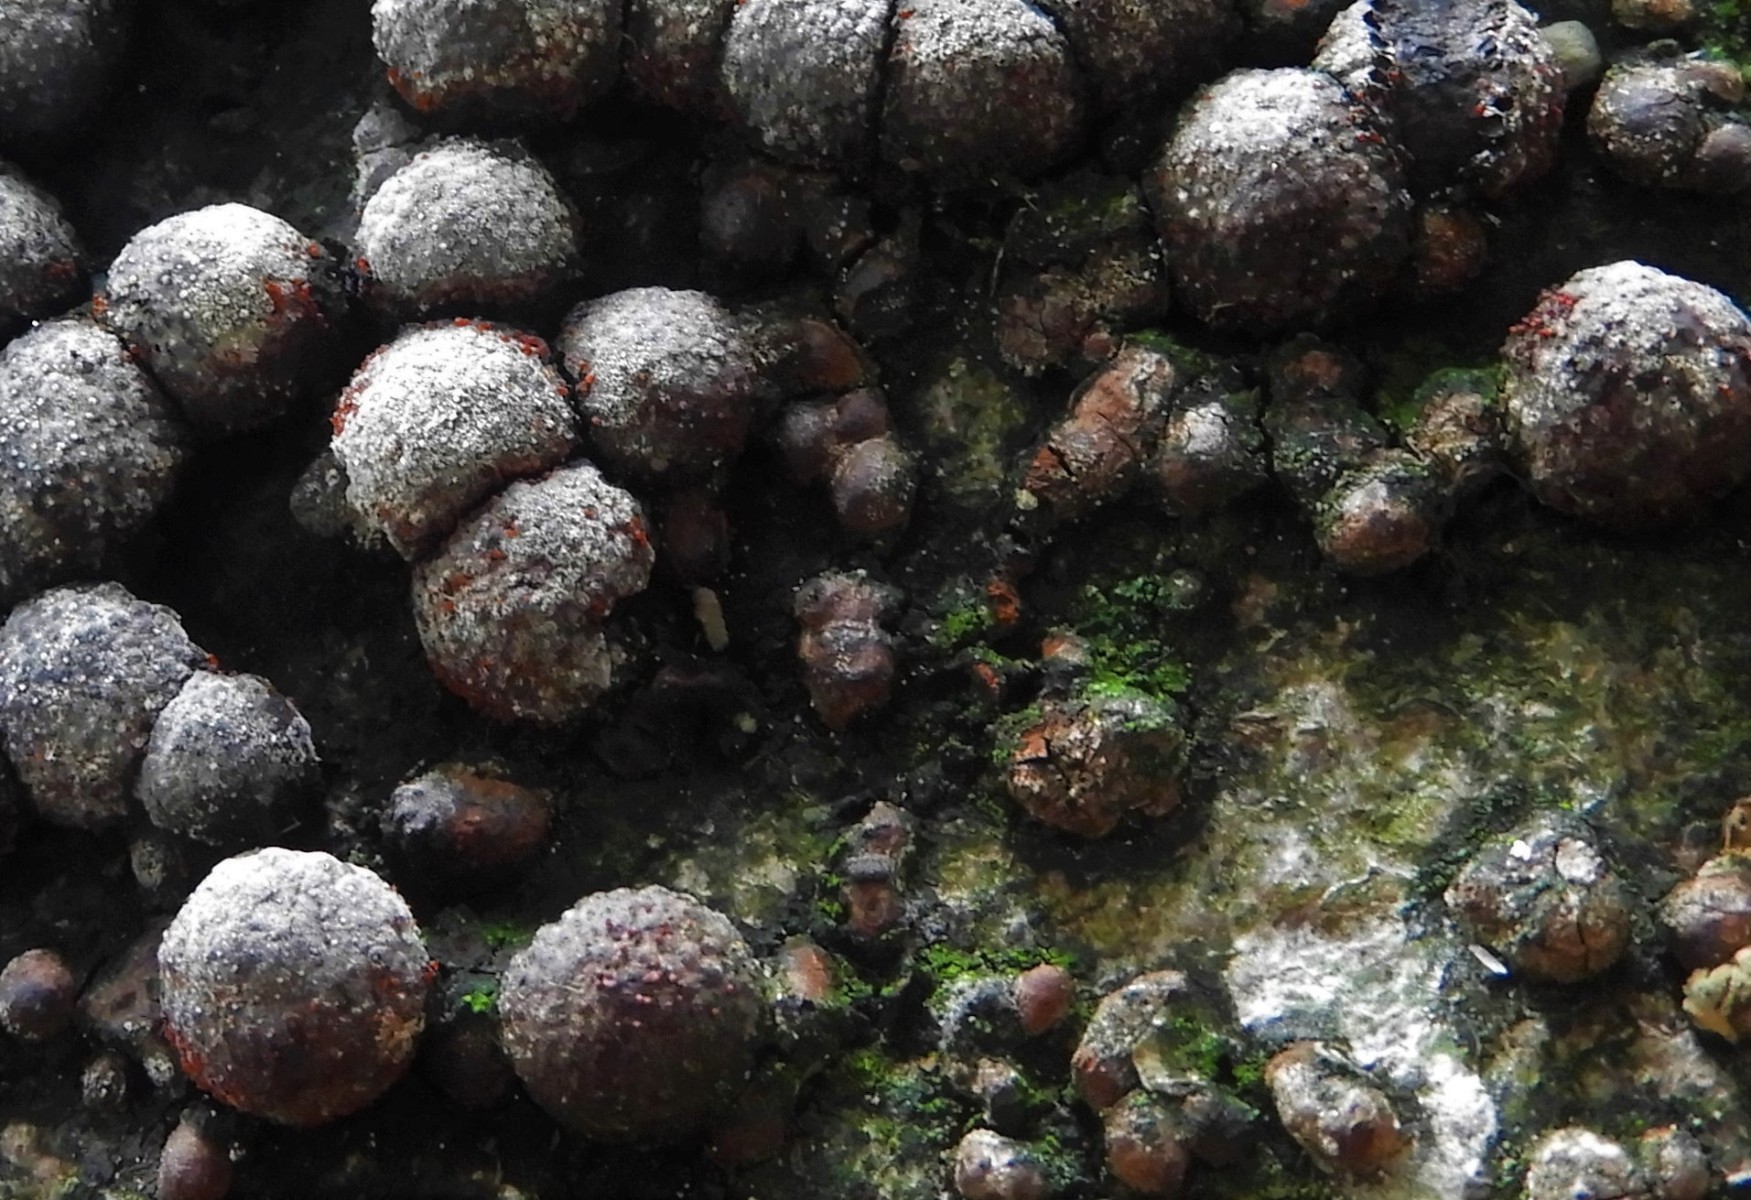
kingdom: Fungi
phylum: Ascomycota
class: Sordariomycetes
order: Hypocreales
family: Nectriaceae
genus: Cosmospora
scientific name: Cosmospora arxii
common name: kuljordbær-cinnobersvamp
